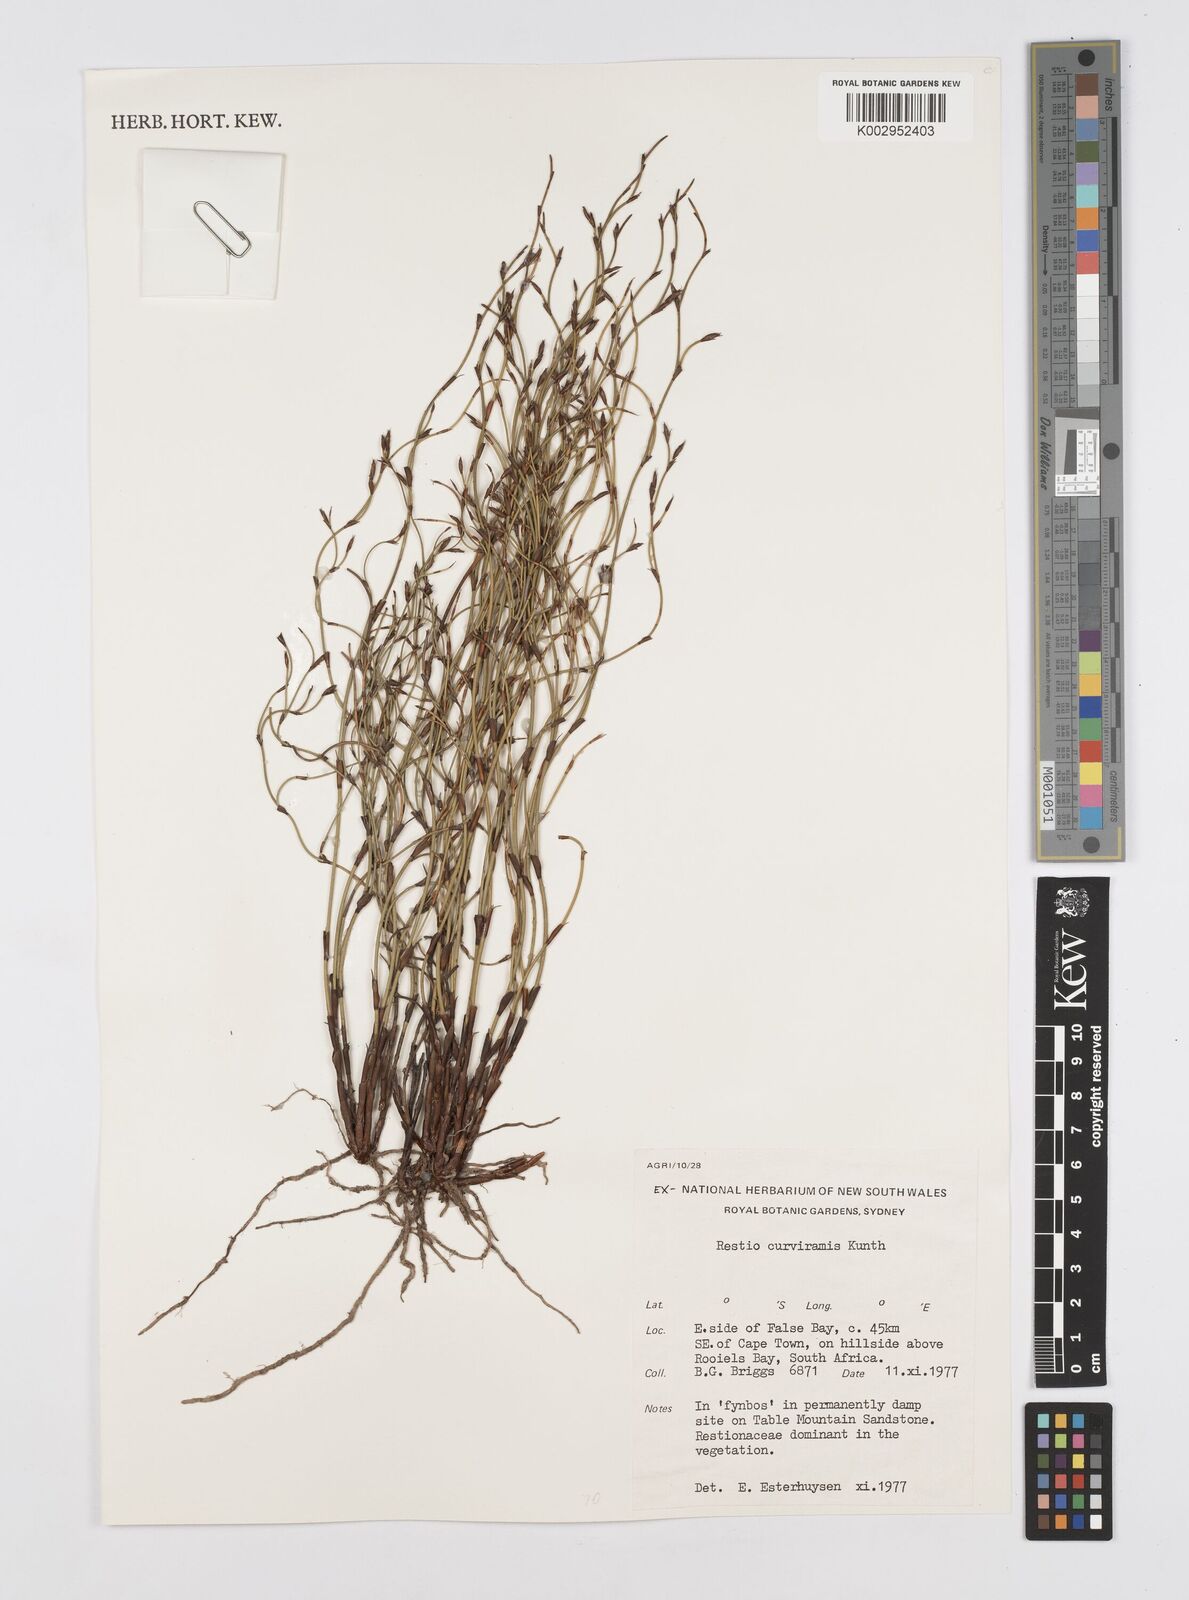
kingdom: Plantae
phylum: Tracheophyta
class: Liliopsida
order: Poales
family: Restionaceae
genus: Restio
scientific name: Restio curviramis
